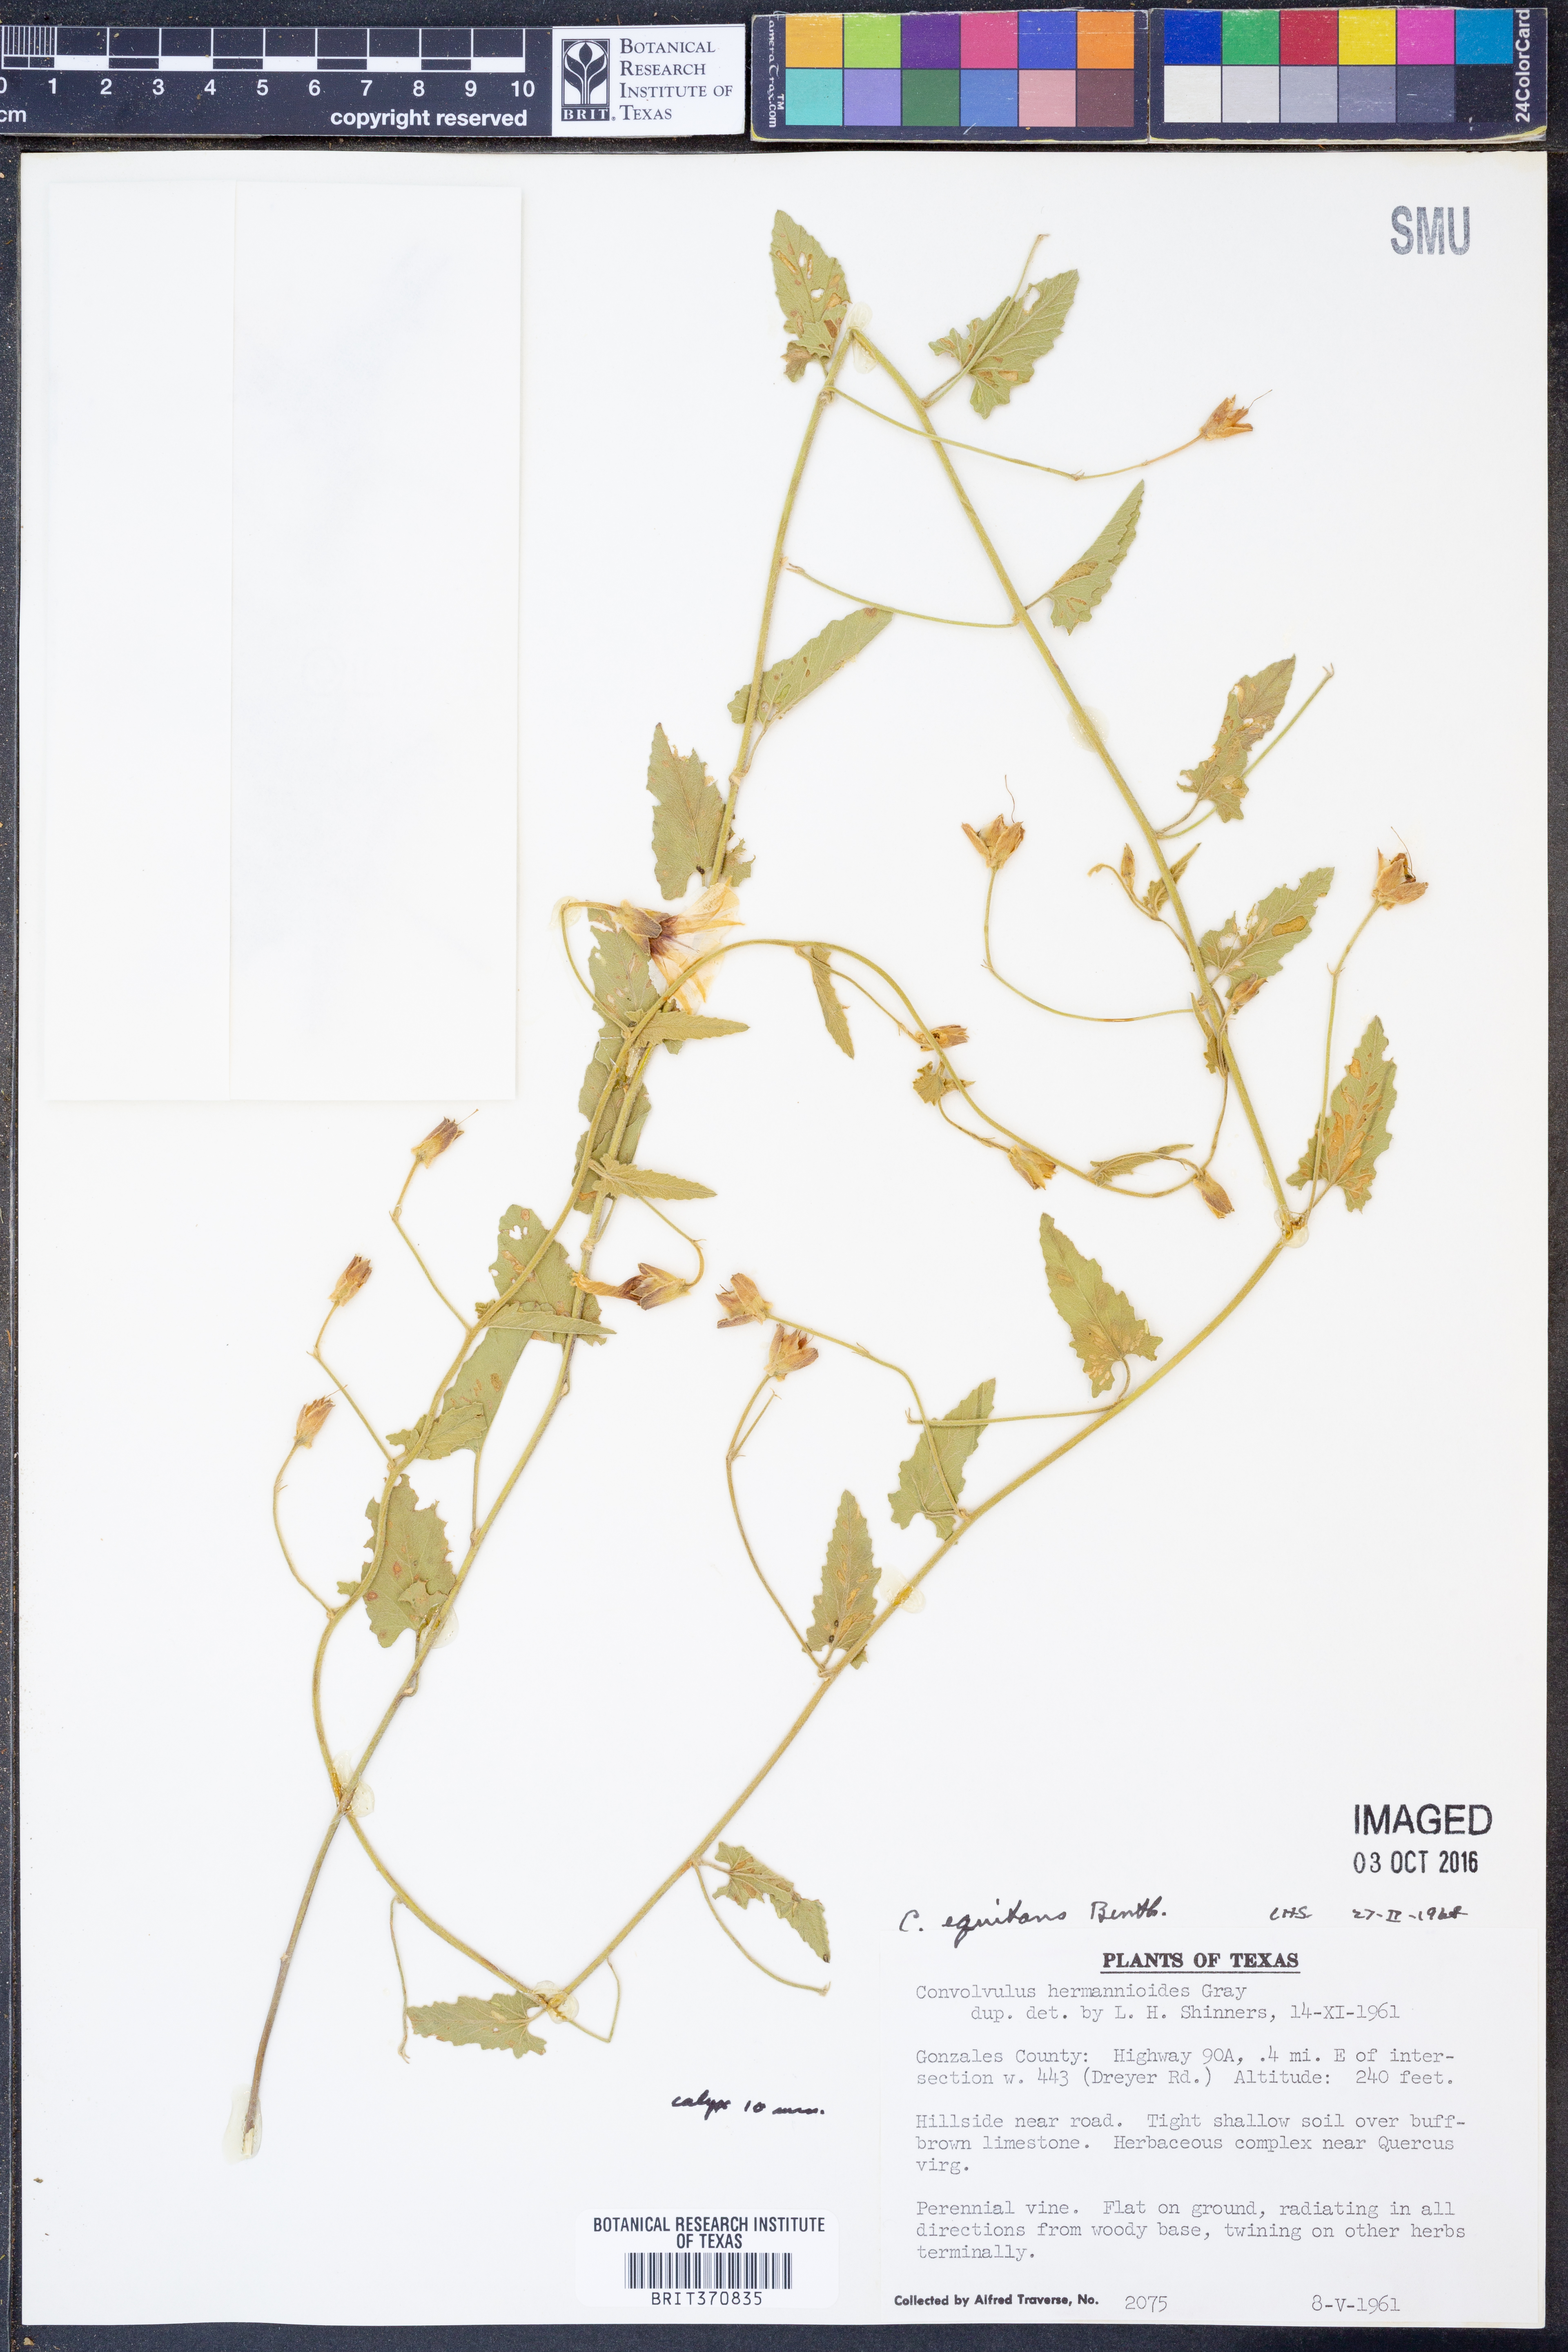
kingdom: Plantae
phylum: Tracheophyta
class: Magnoliopsida
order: Solanales
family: Convolvulaceae
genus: Convolvulus
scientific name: Convolvulus equitans
